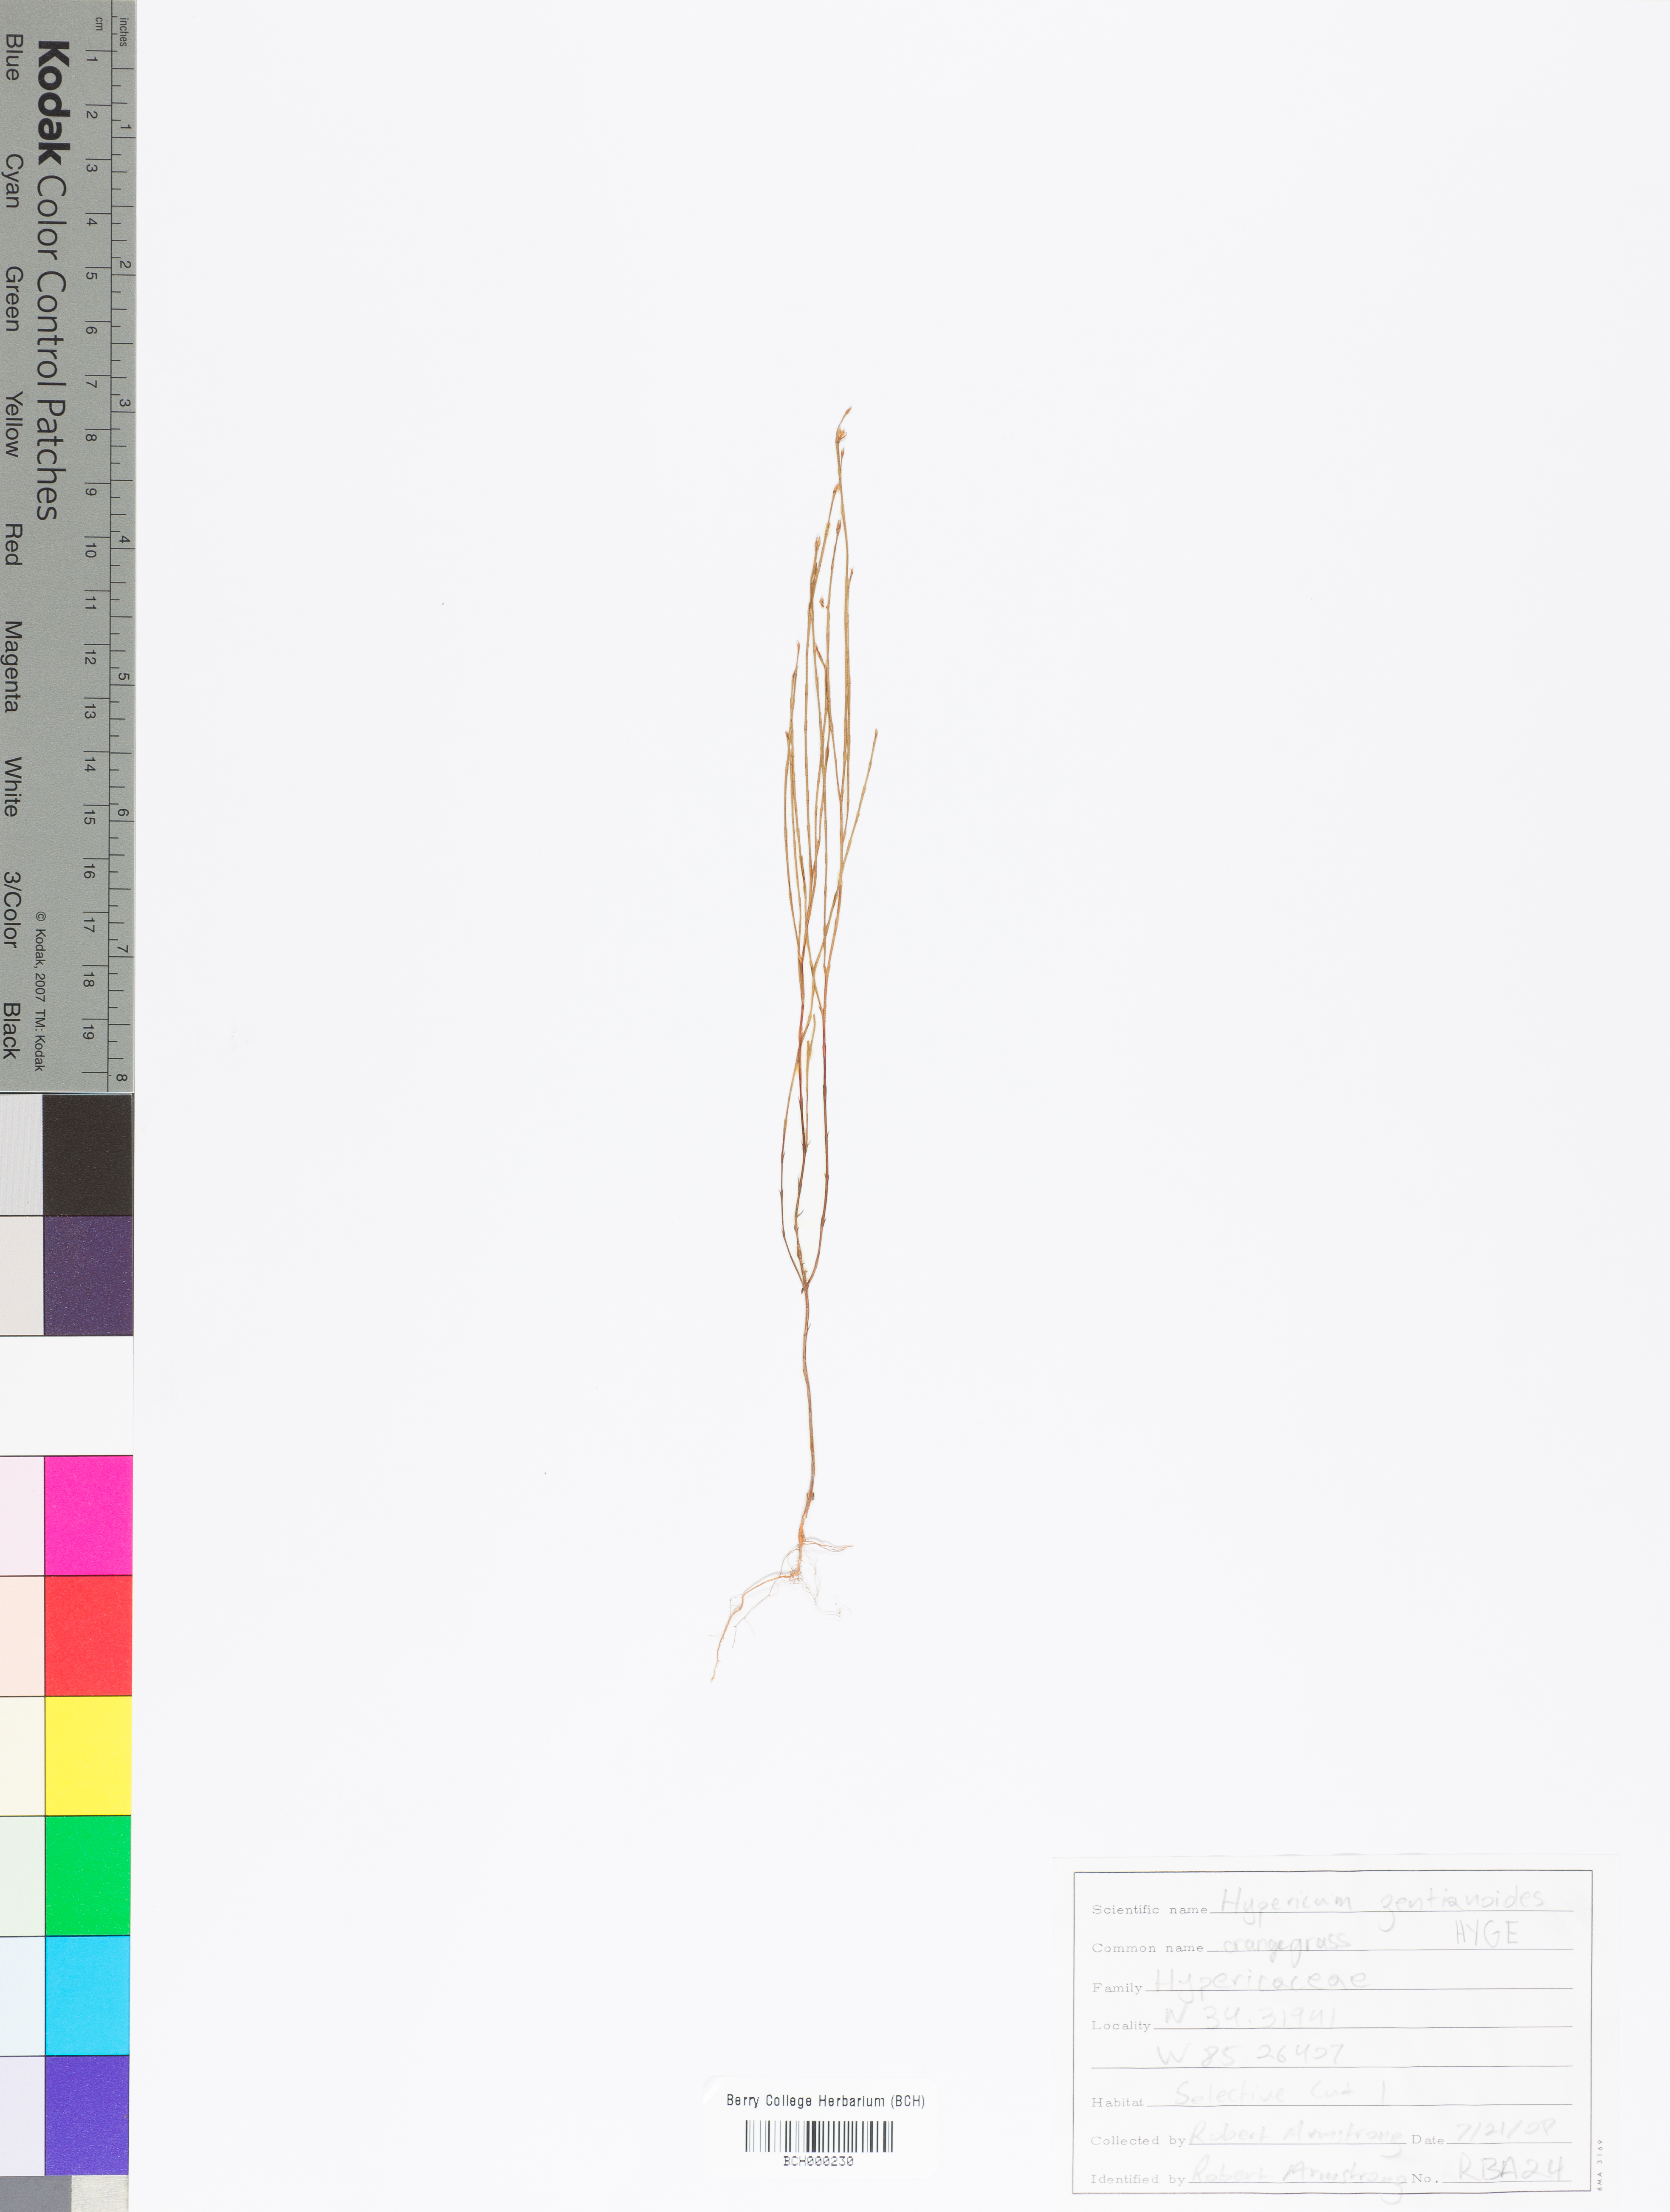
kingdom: Plantae
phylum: Tracheophyta
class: Magnoliopsida
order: Malpighiales
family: Hypericaceae
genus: Hypericum
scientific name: Hypericum gentianoides
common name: Gentian-leaved st. john's-wort
